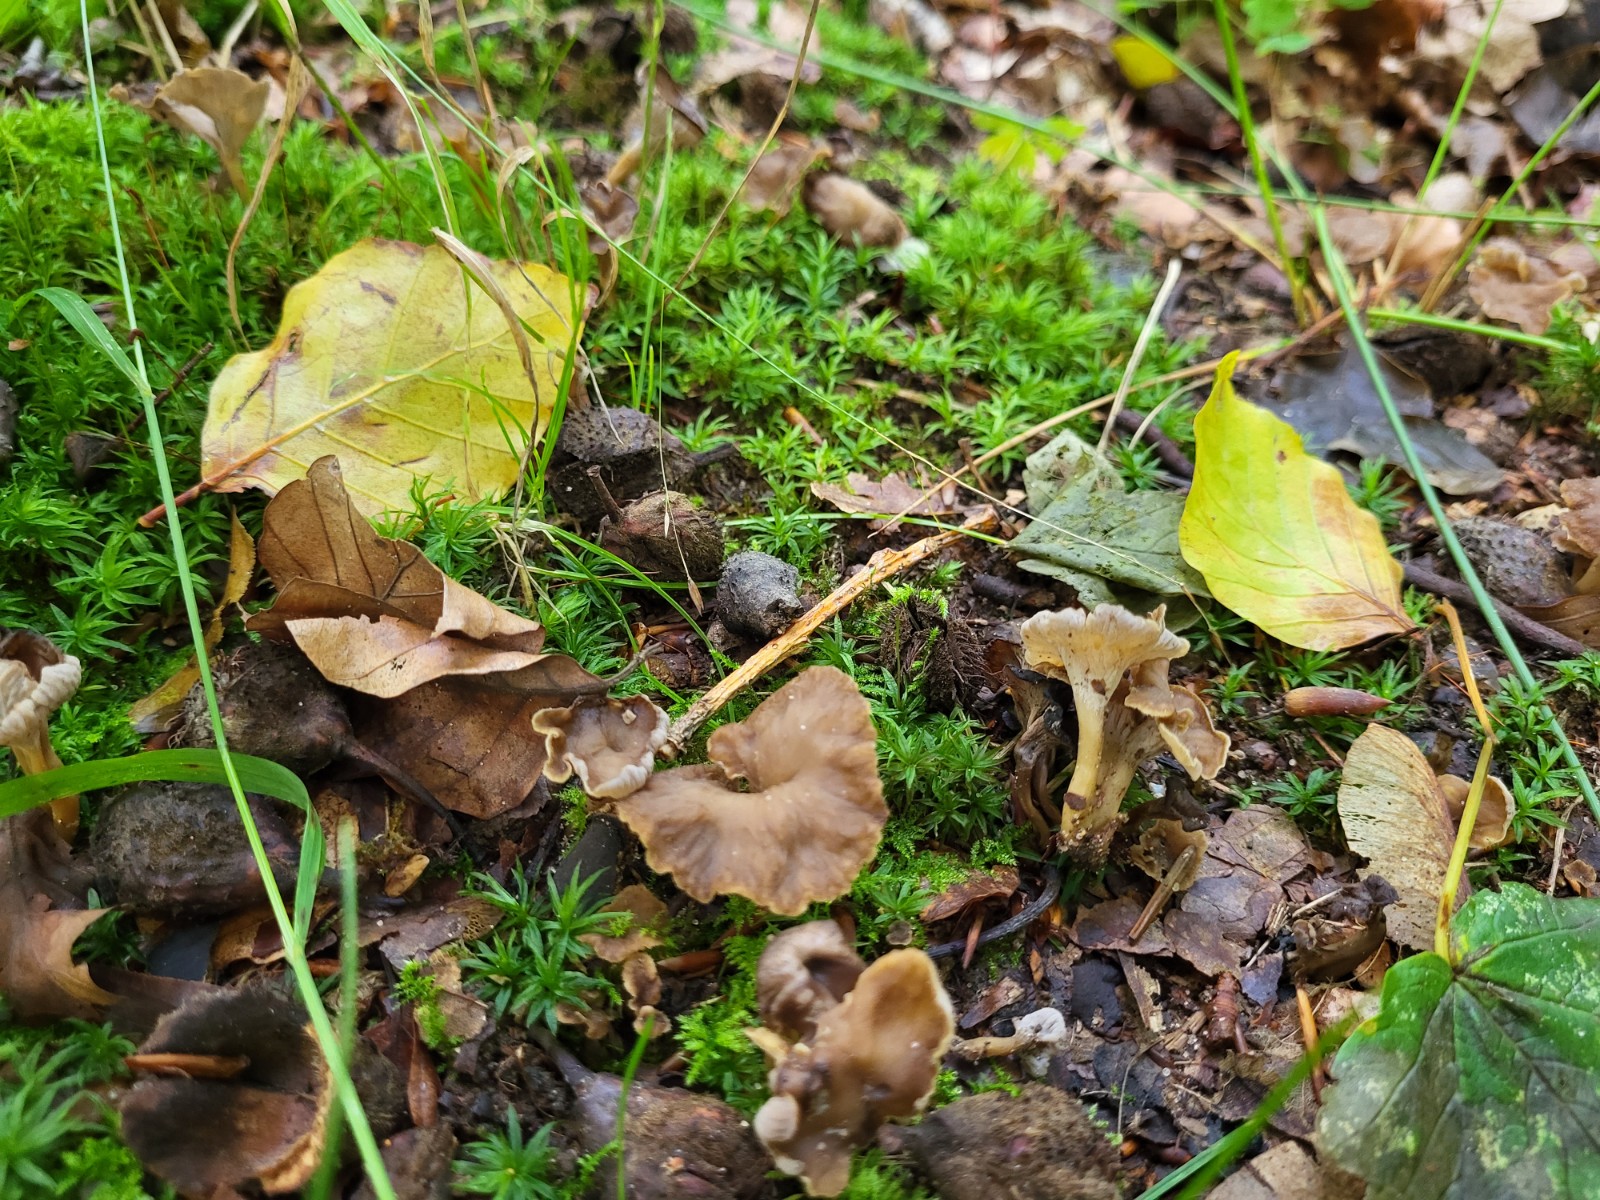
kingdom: Fungi
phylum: Basidiomycota
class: Agaricomycetes
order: Cantharellales
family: Hydnaceae
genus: Craterellus
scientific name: Craterellus undulatus
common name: liden kantarel
